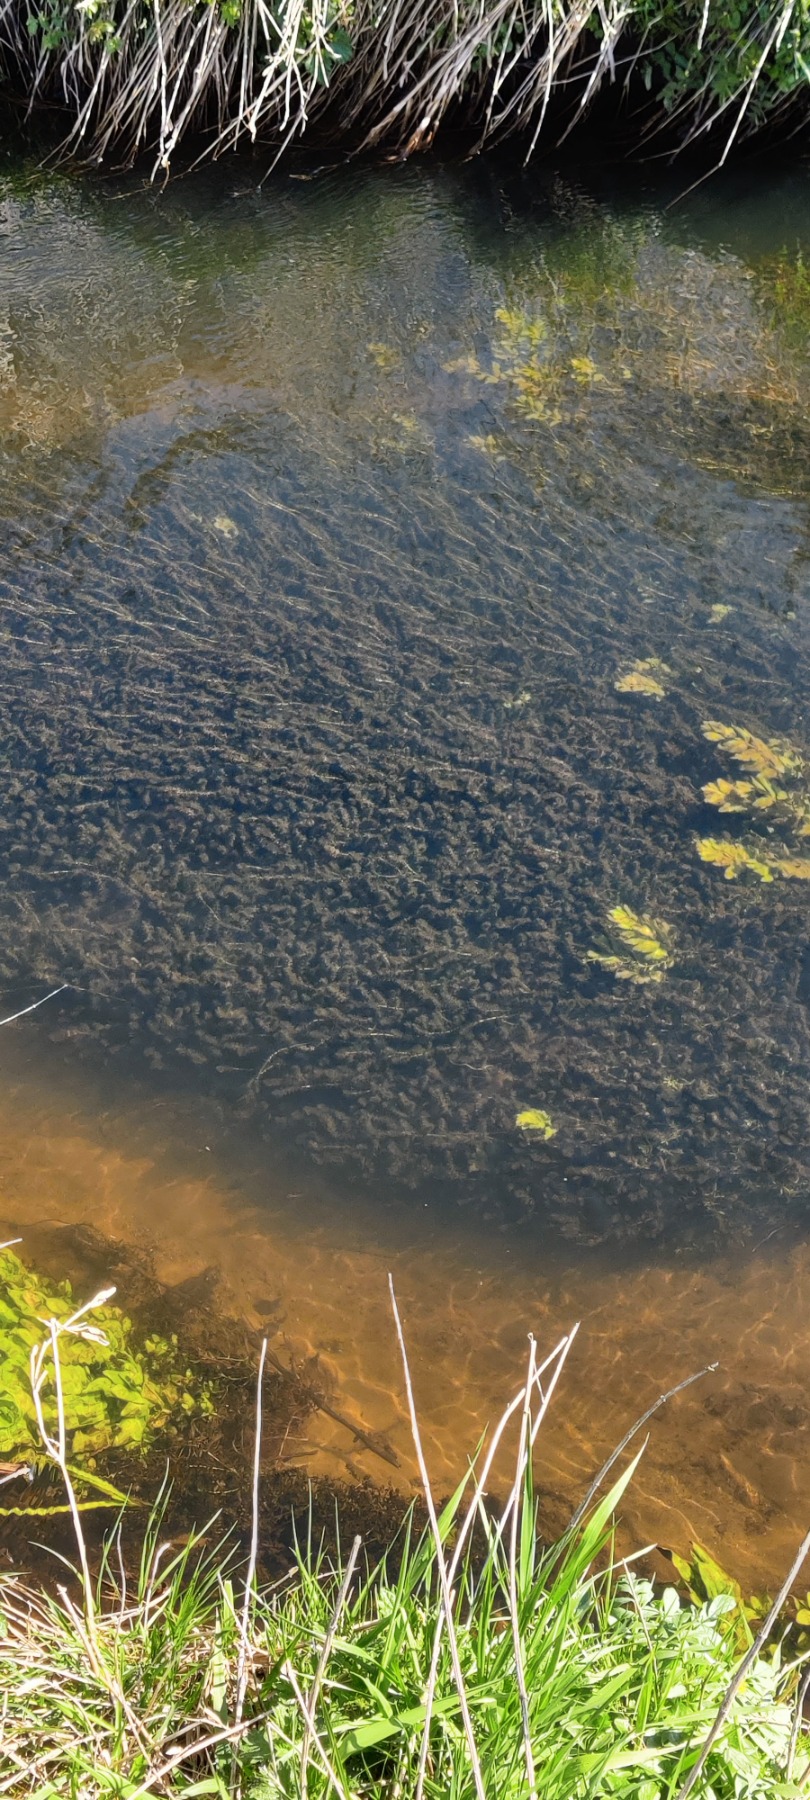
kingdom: Plantae
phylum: Tracheophyta
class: Liliopsida
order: Alismatales
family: Hydrocharitaceae
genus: Elodea
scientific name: Elodea canadensis
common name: Vandpest
